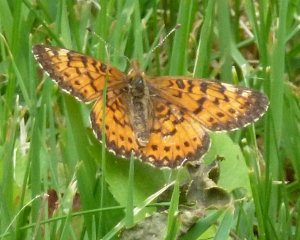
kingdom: Animalia
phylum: Arthropoda
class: Insecta
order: Lepidoptera
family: Nymphalidae
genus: Boloria
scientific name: Boloria selene
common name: Silver-bordered Fritillary
